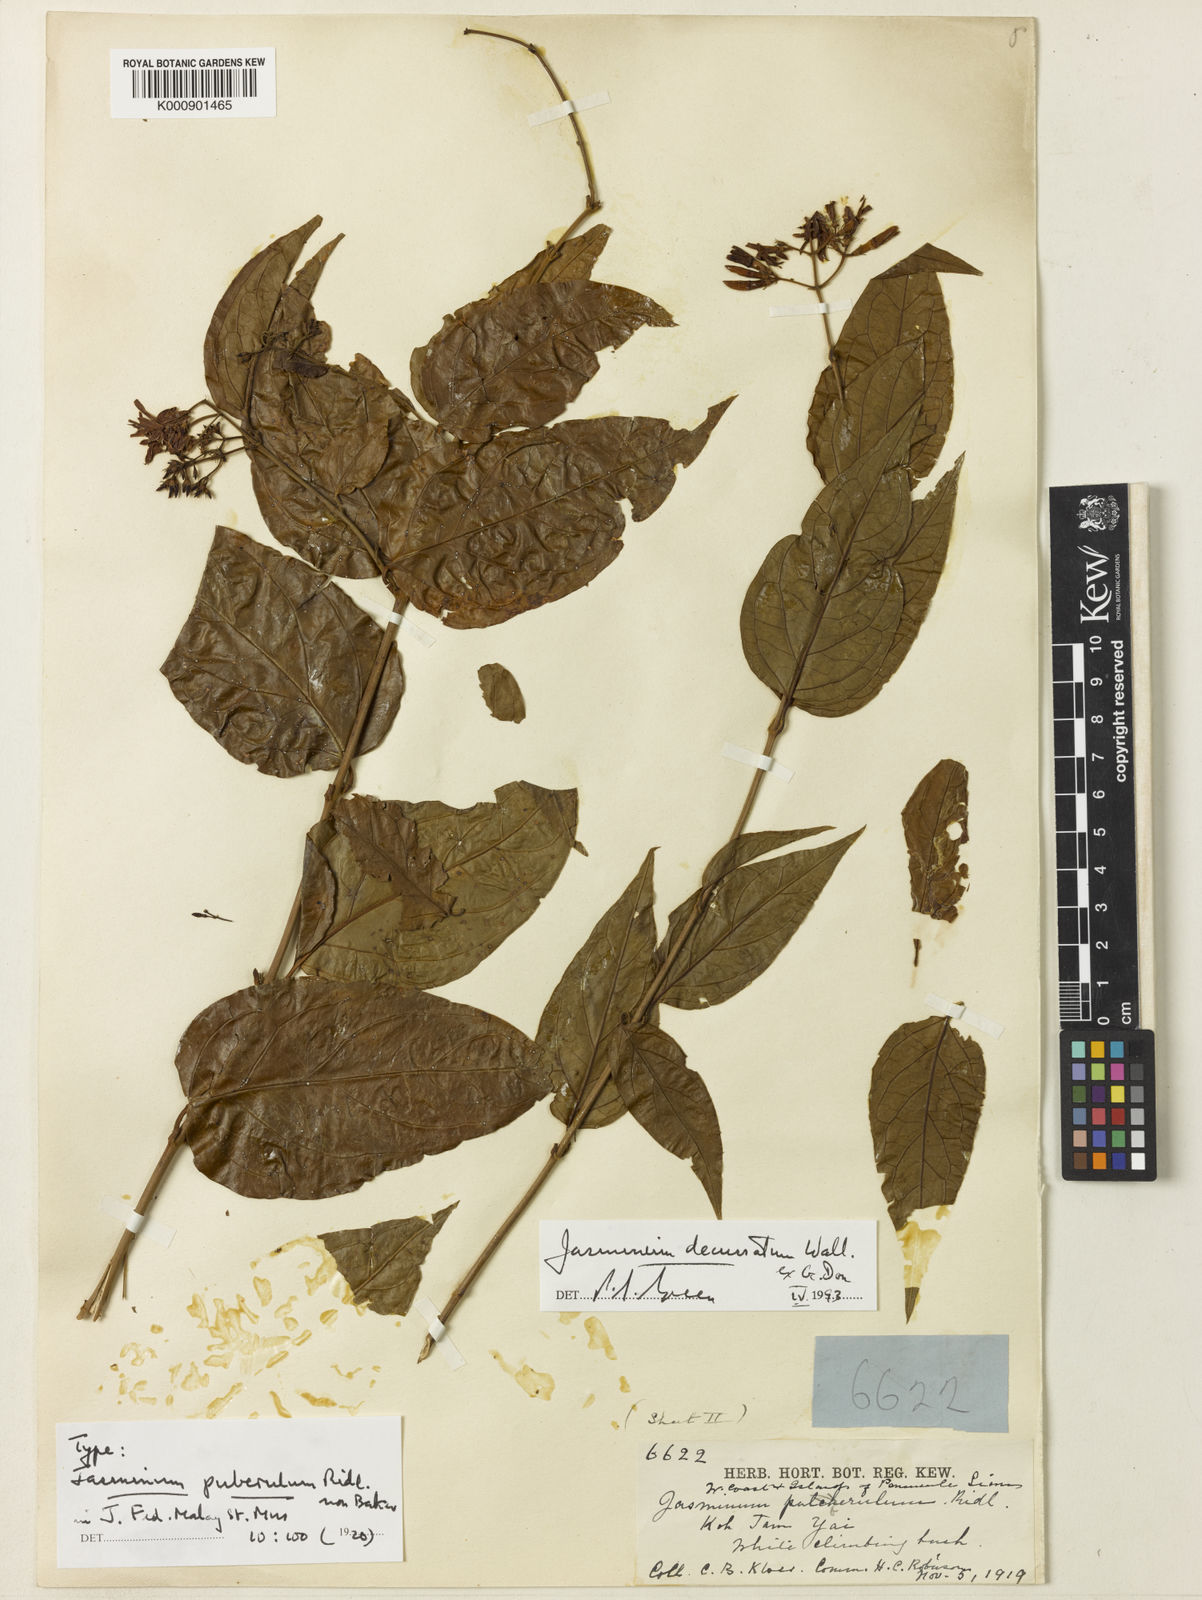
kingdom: Plantae
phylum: Tracheophyta
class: Magnoliopsida
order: Lamiales
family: Oleaceae
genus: Jasminum
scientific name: Jasminum decussatum
